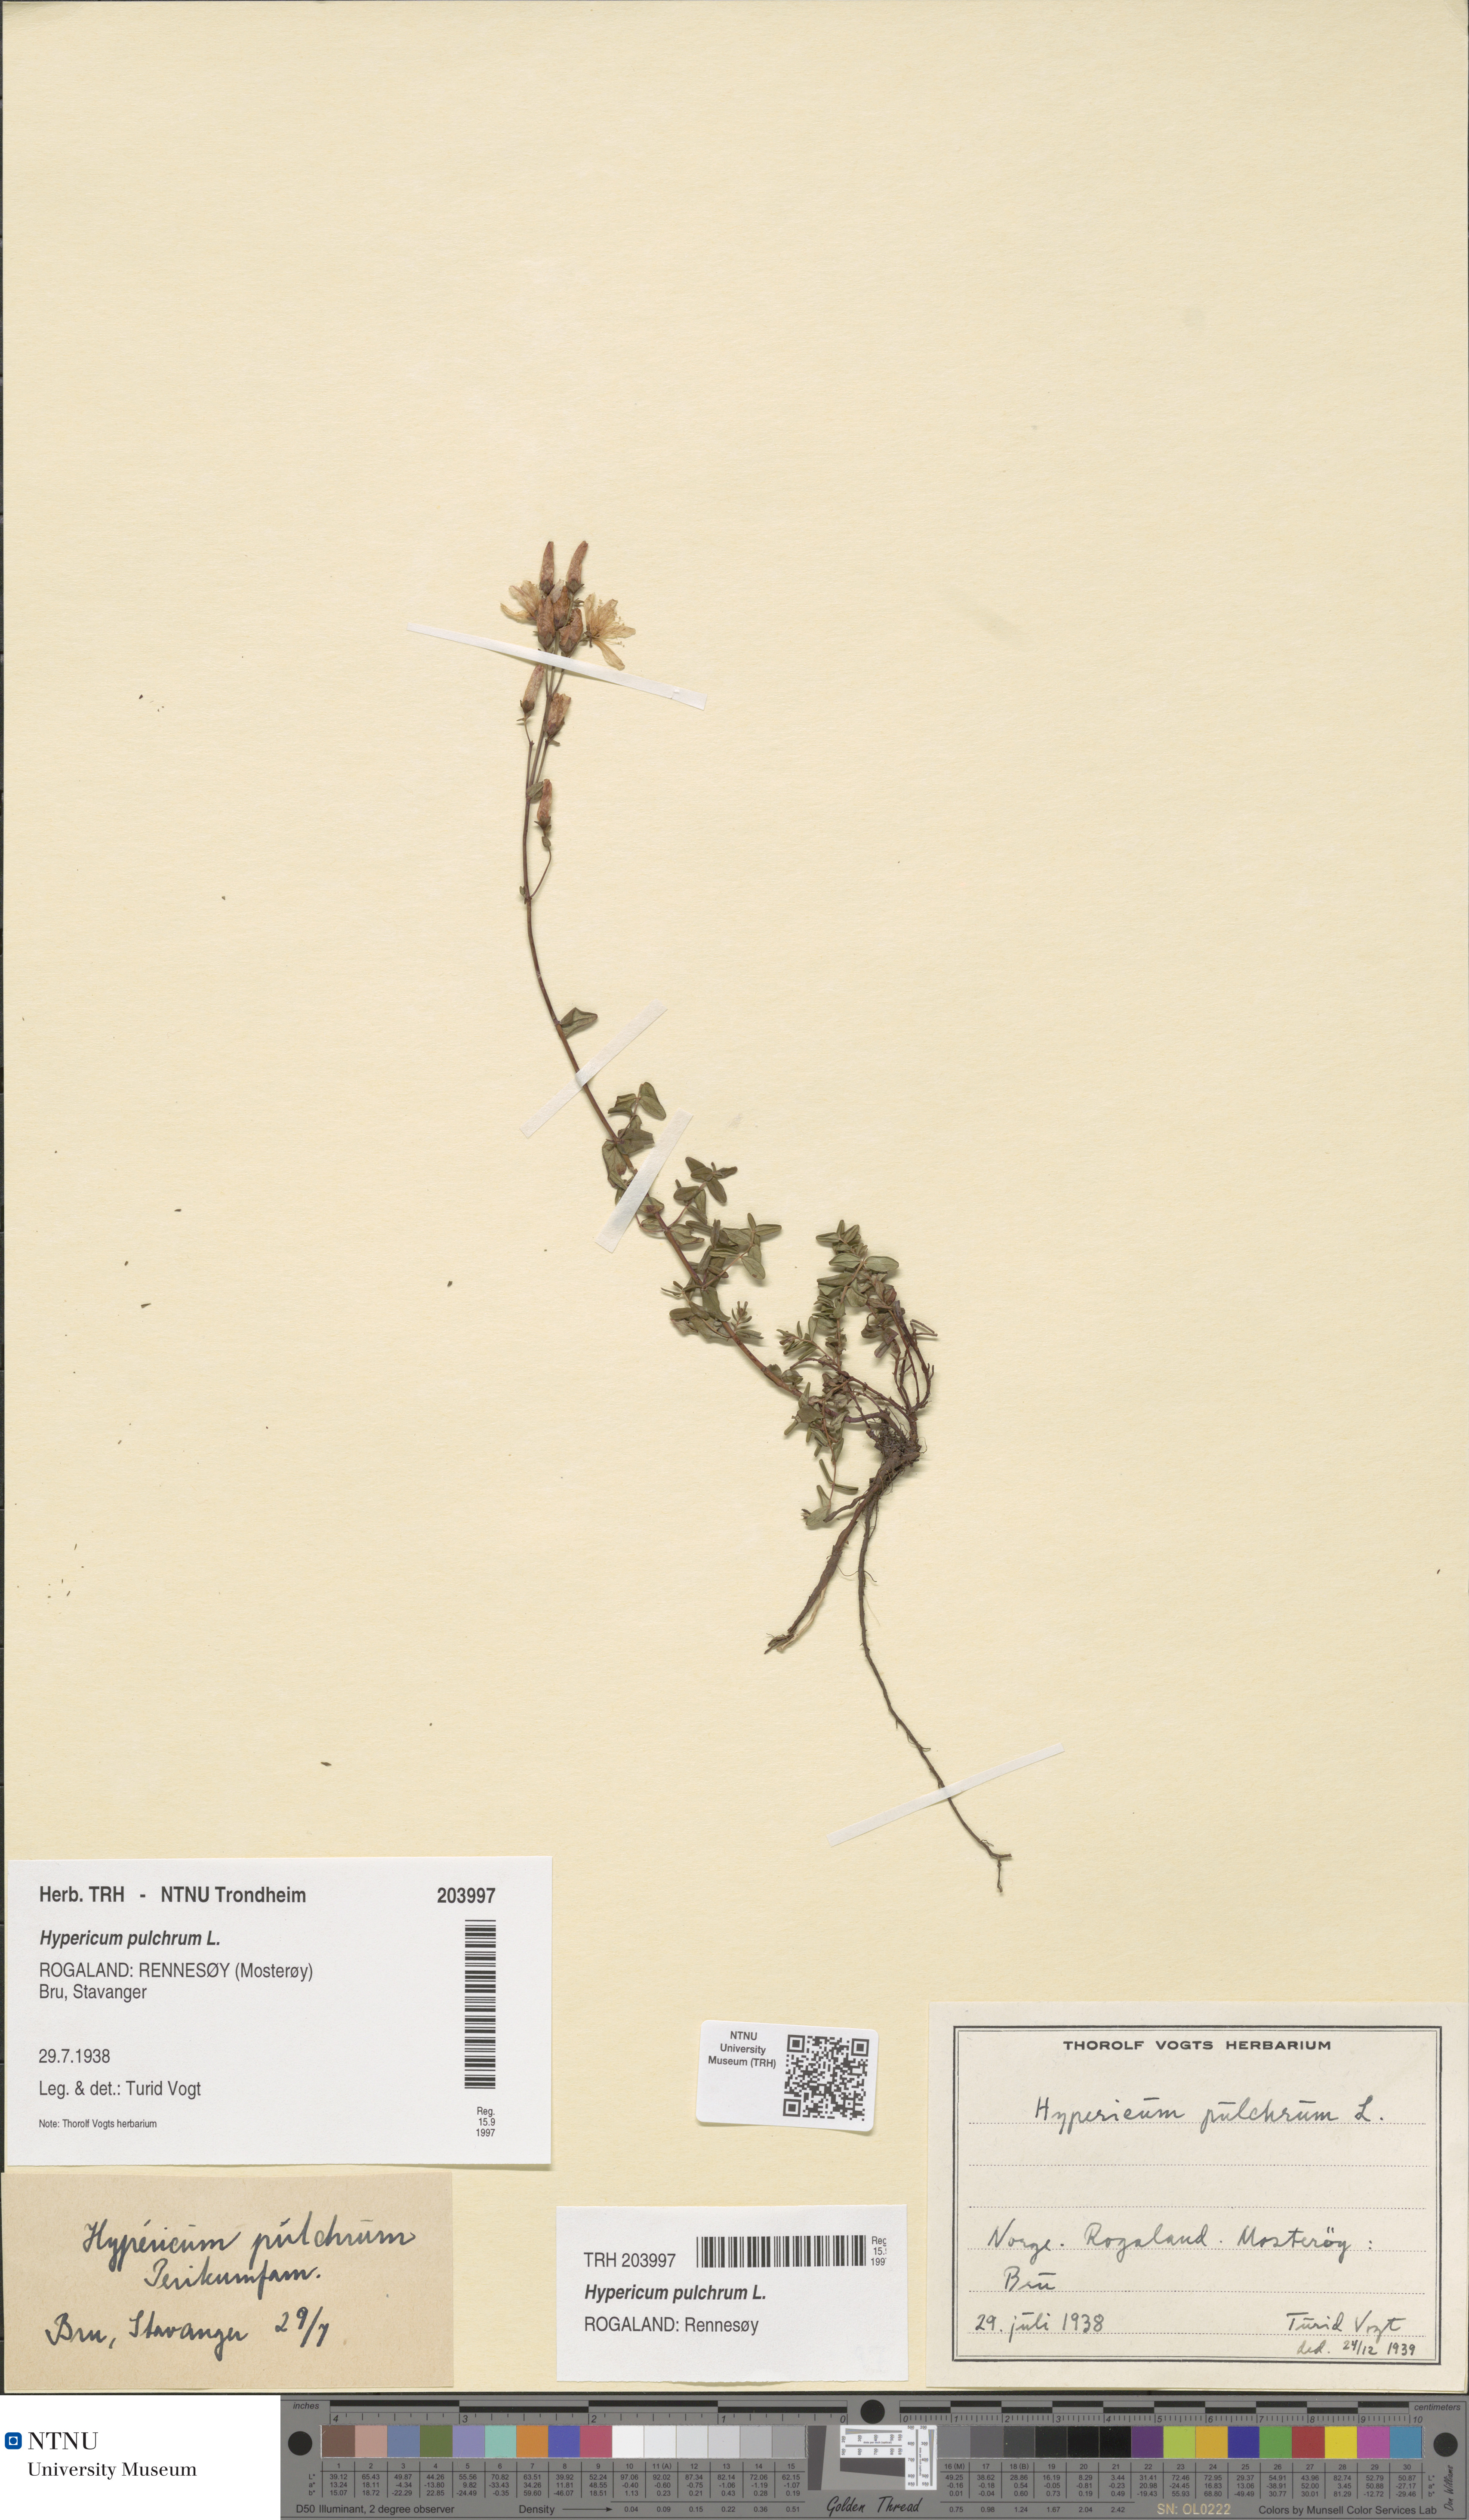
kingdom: Plantae
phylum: Tracheophyta
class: Magnoliopsida
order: Malpighiales
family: Hypericaceae
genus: Hypericum
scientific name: Hypericum pulchrum
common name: Slender st. john's-wort
